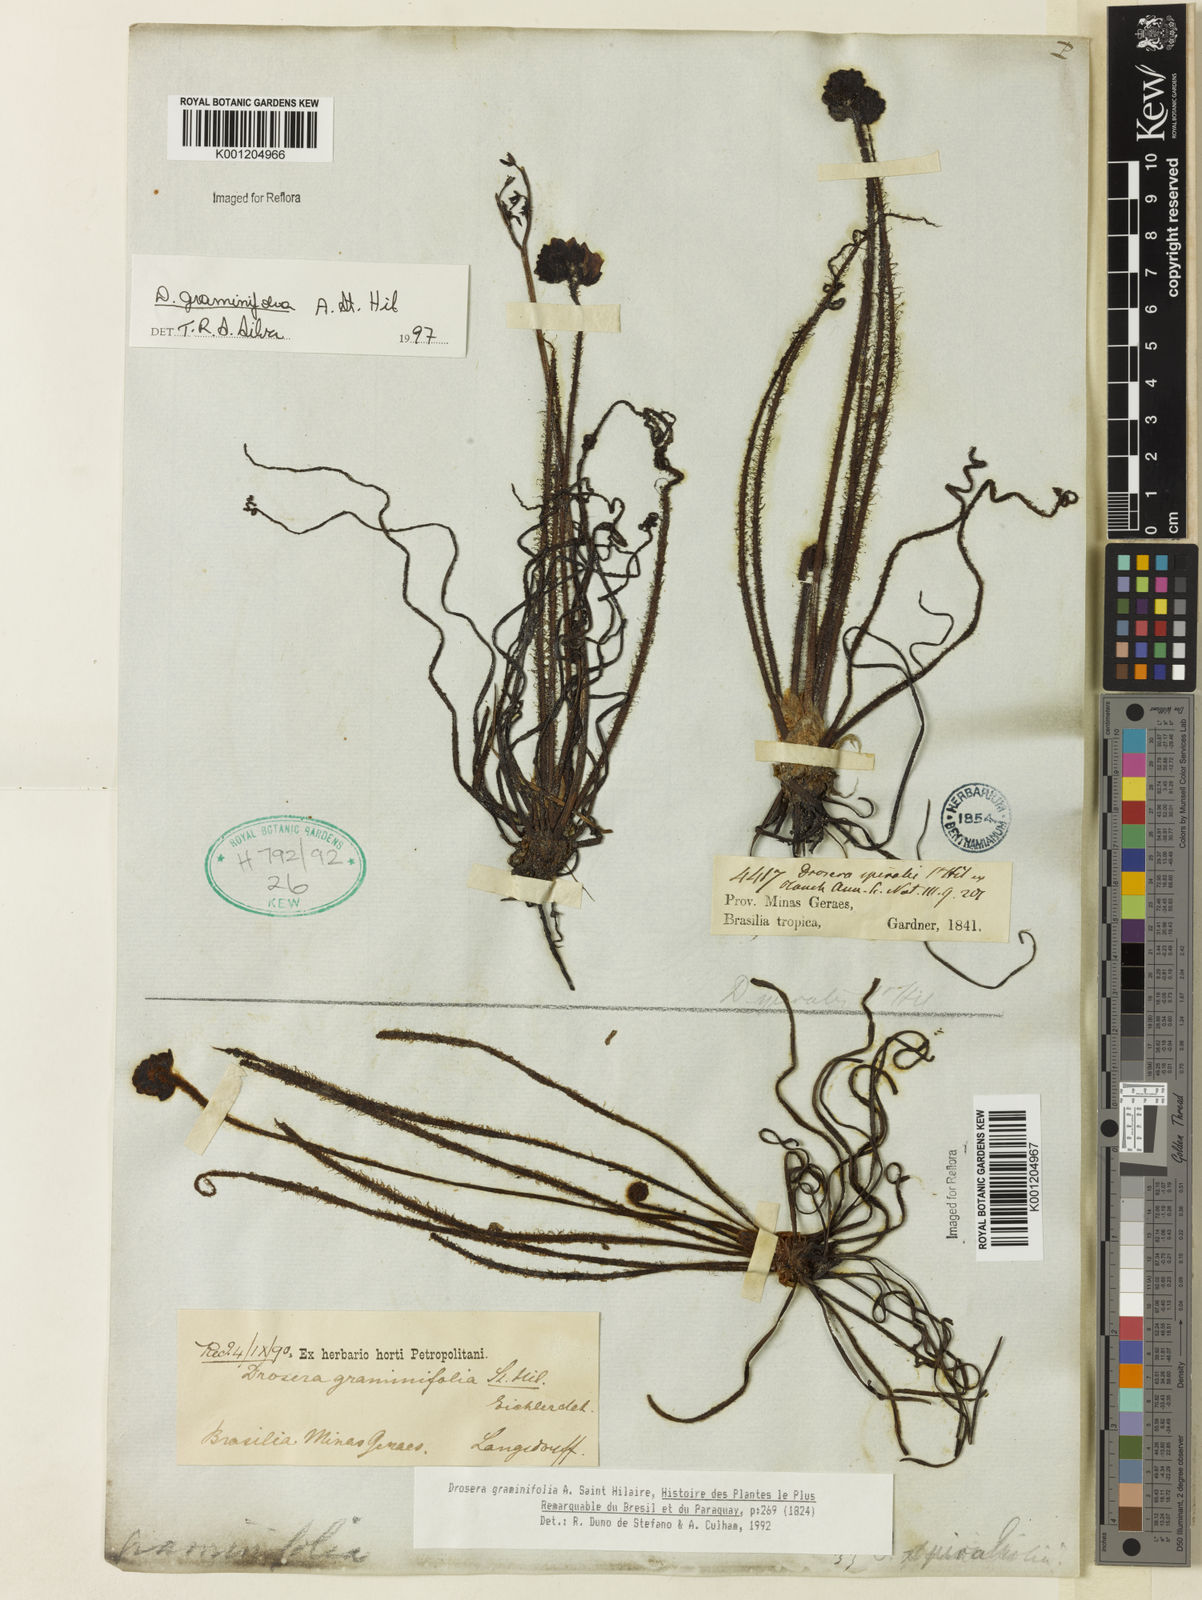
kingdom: Plantae
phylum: Tracheophyta
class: Magnoliopsida
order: Caryophyllales
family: Droseraceae
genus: Drosera
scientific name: Drosera graminifolia
